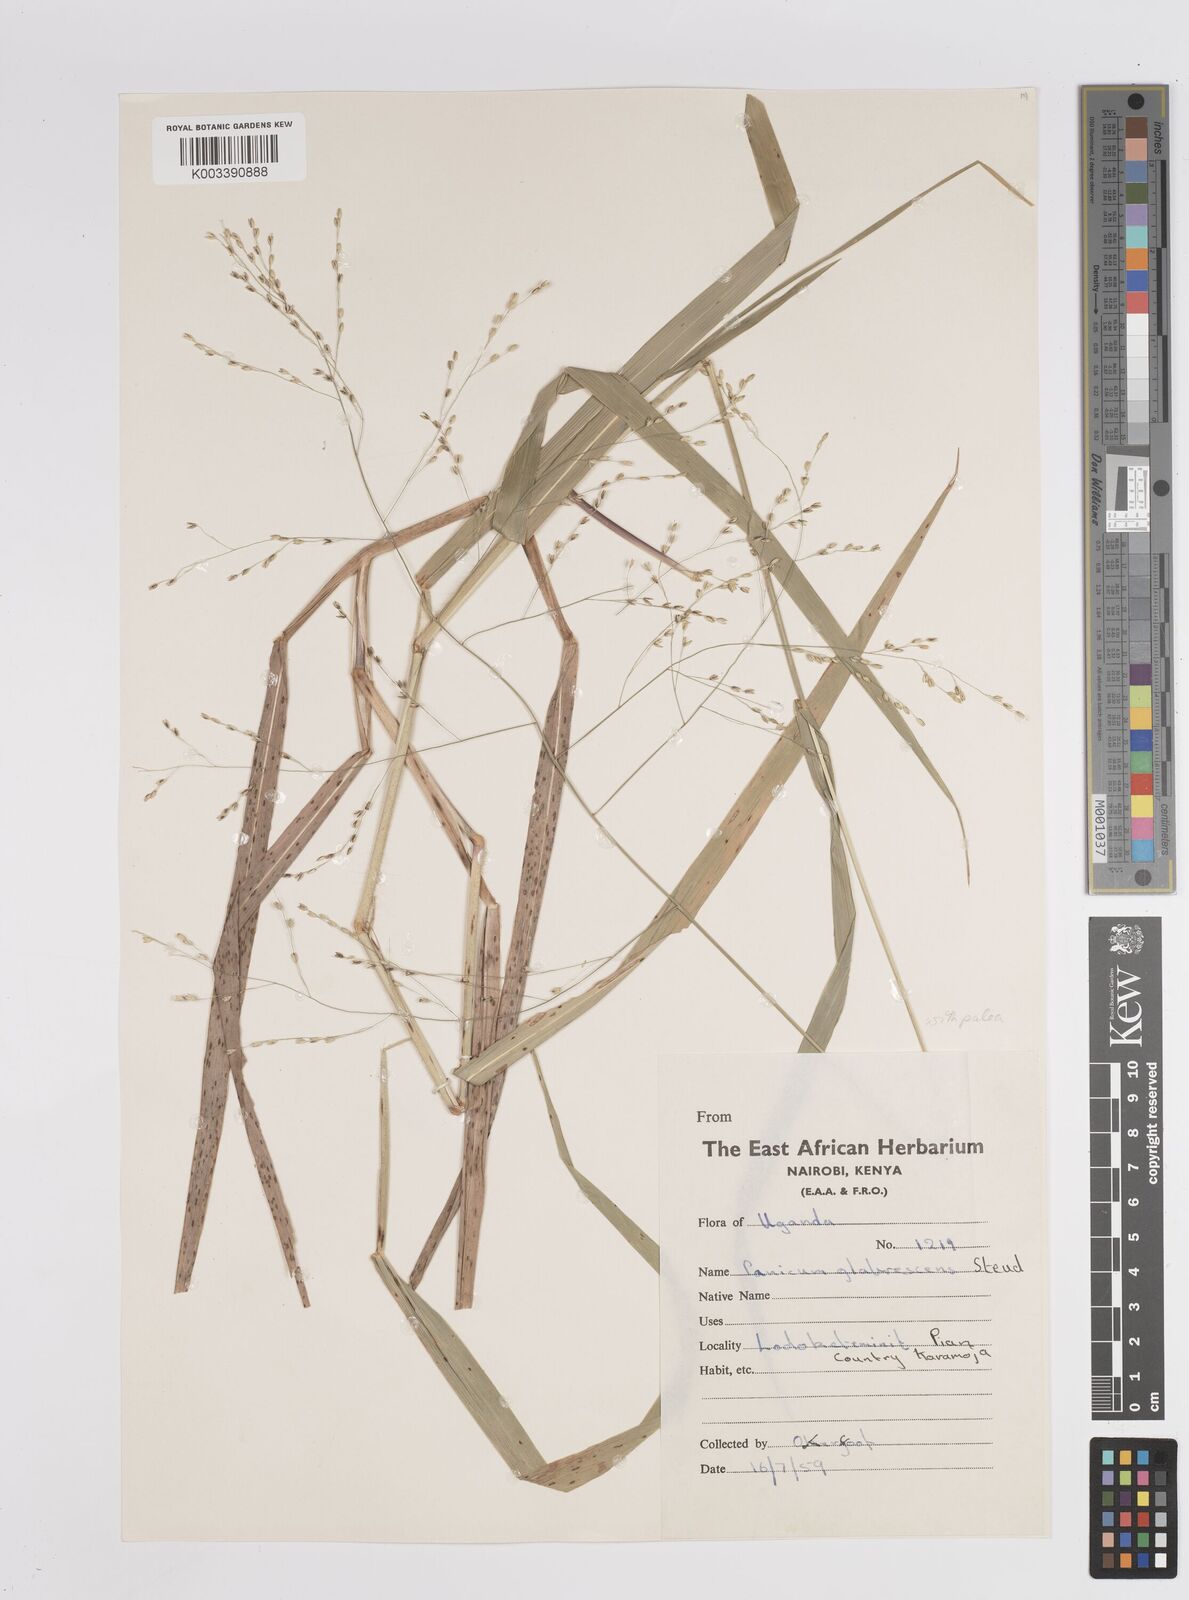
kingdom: Plantae
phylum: Tracheophyta
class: Liliopsida
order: Poales
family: Poaceae
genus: Panicum
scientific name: Panicum merkeri
